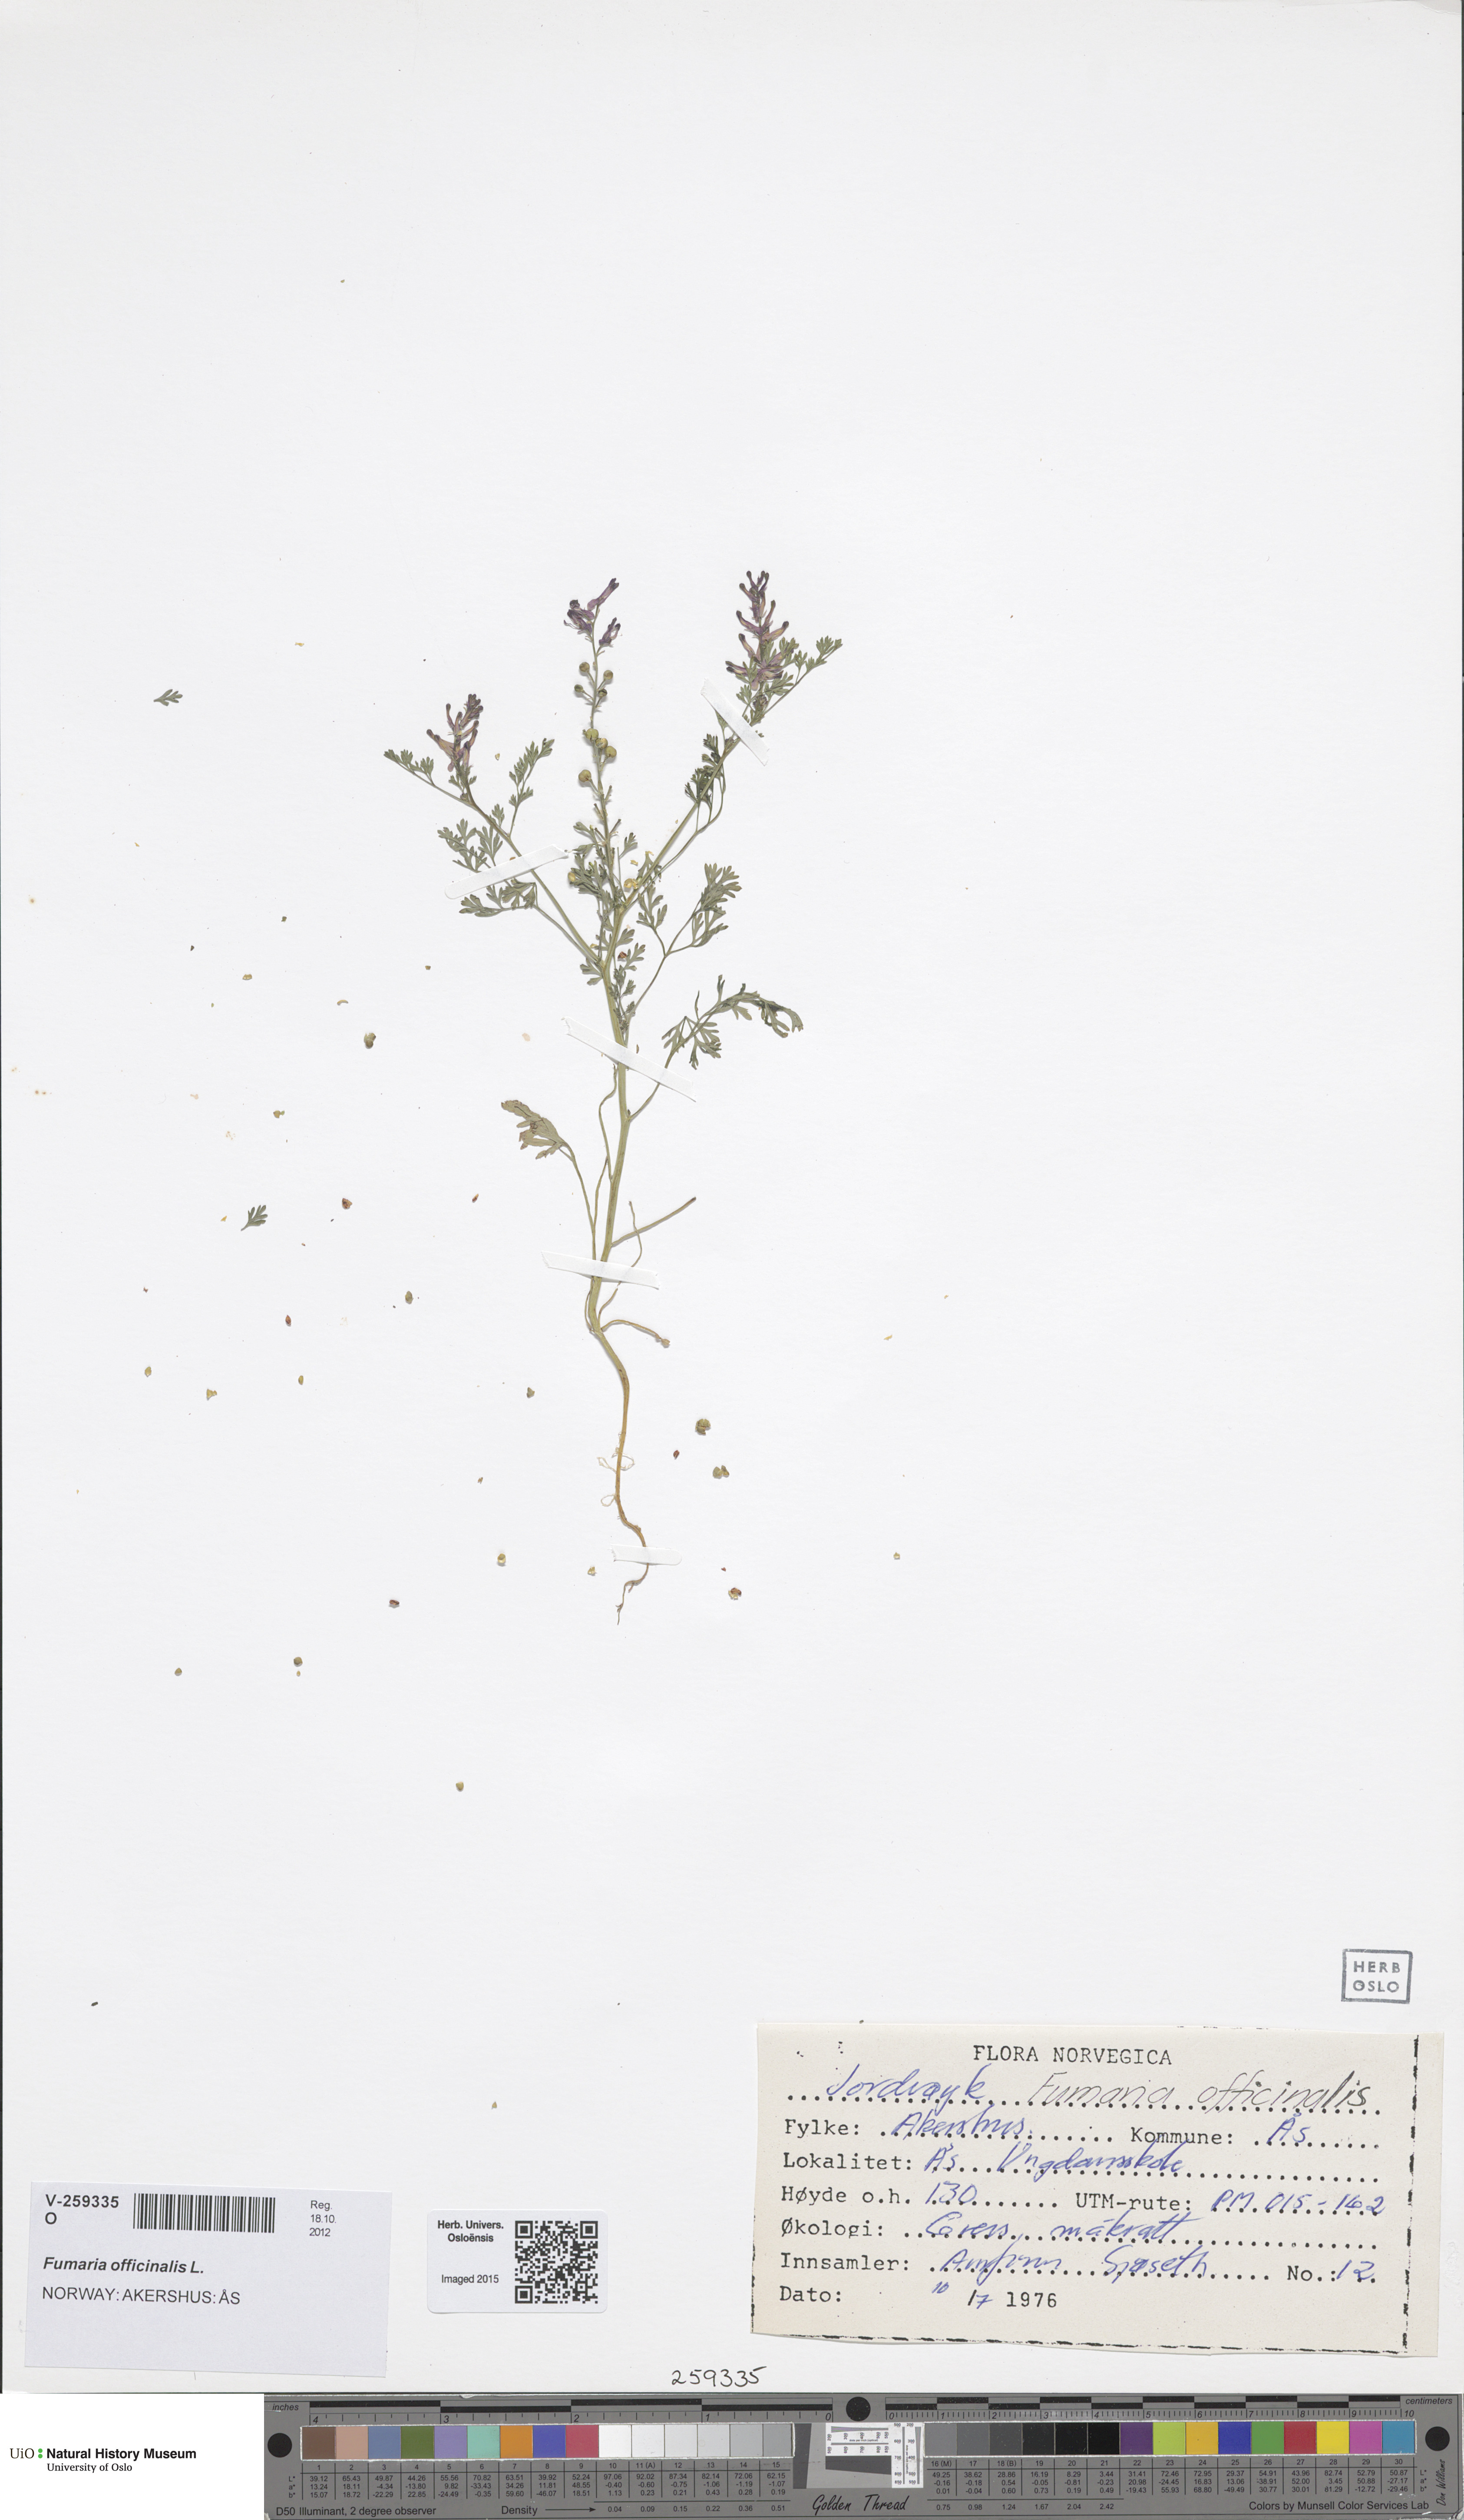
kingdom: Plantae
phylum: Tracheophyta
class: Magnoliopsida
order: Ranunculales
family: Papaveraceae
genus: Fumaria
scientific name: Fumaria officinalis
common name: Common fumitory
